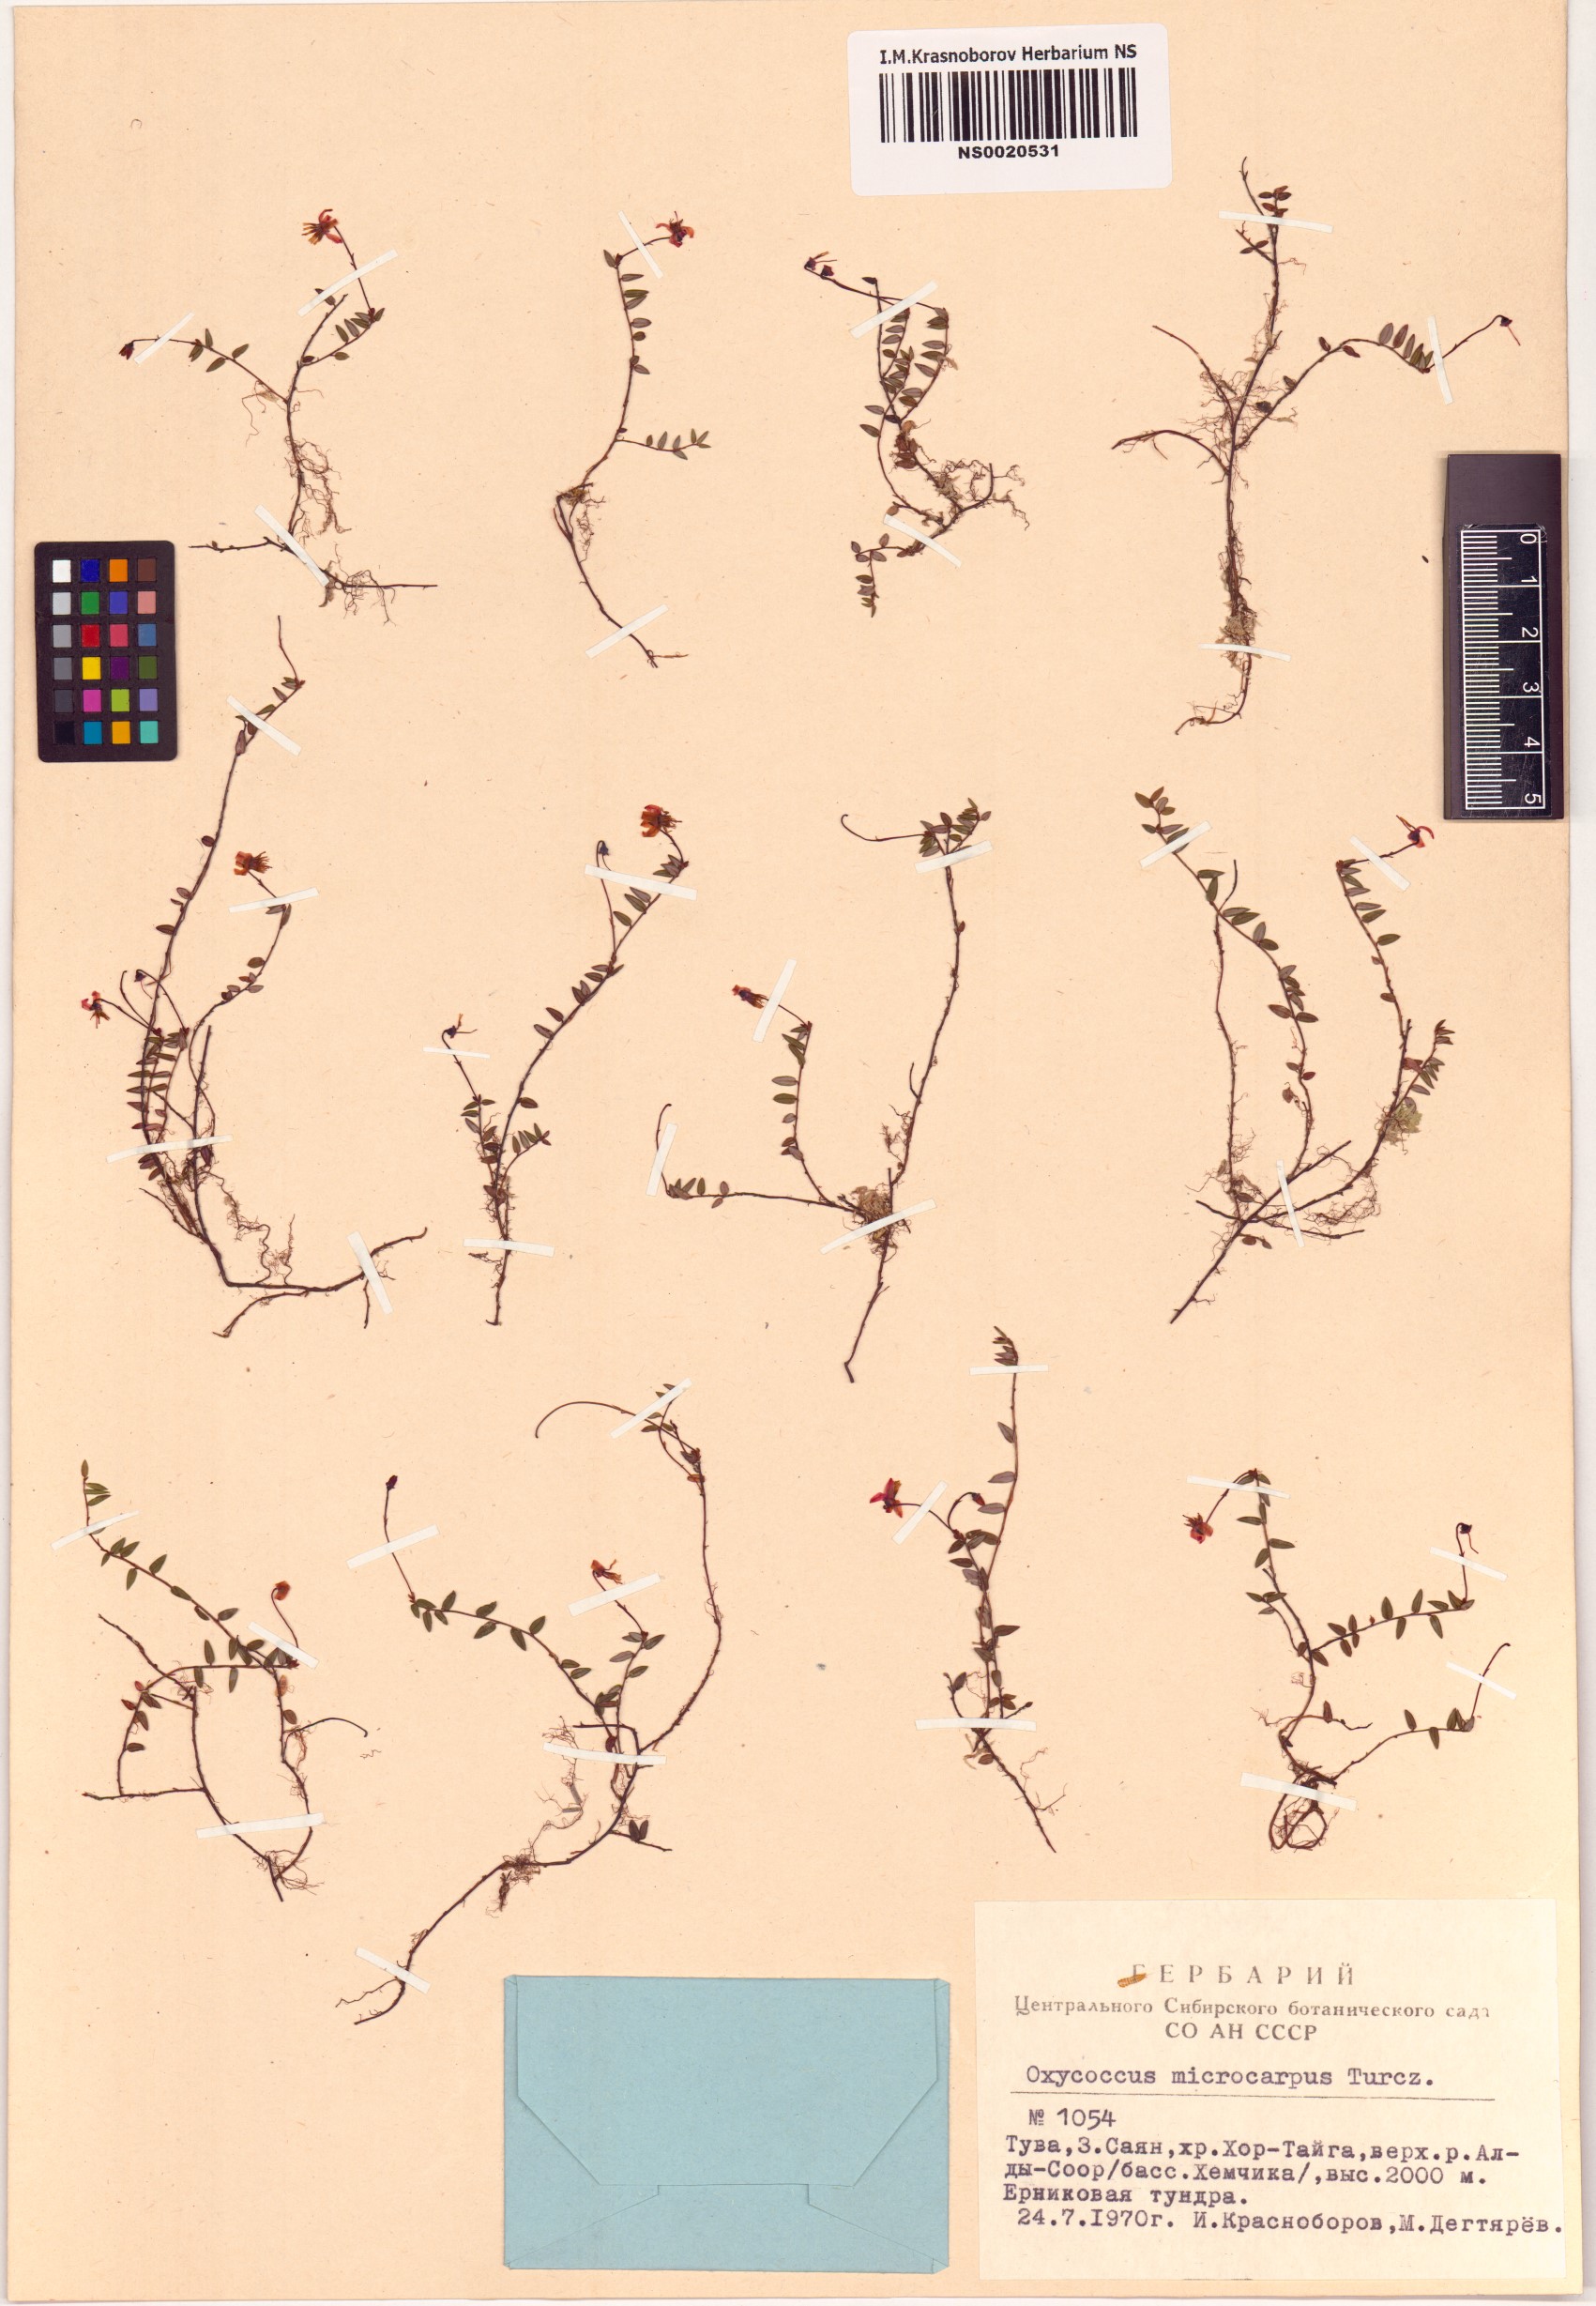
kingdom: Plantae
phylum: Tracheophyta
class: Magnoliopsida
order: Ericales
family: Ericaceae
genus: Vaccinium
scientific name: Vaccinium microcarpum
